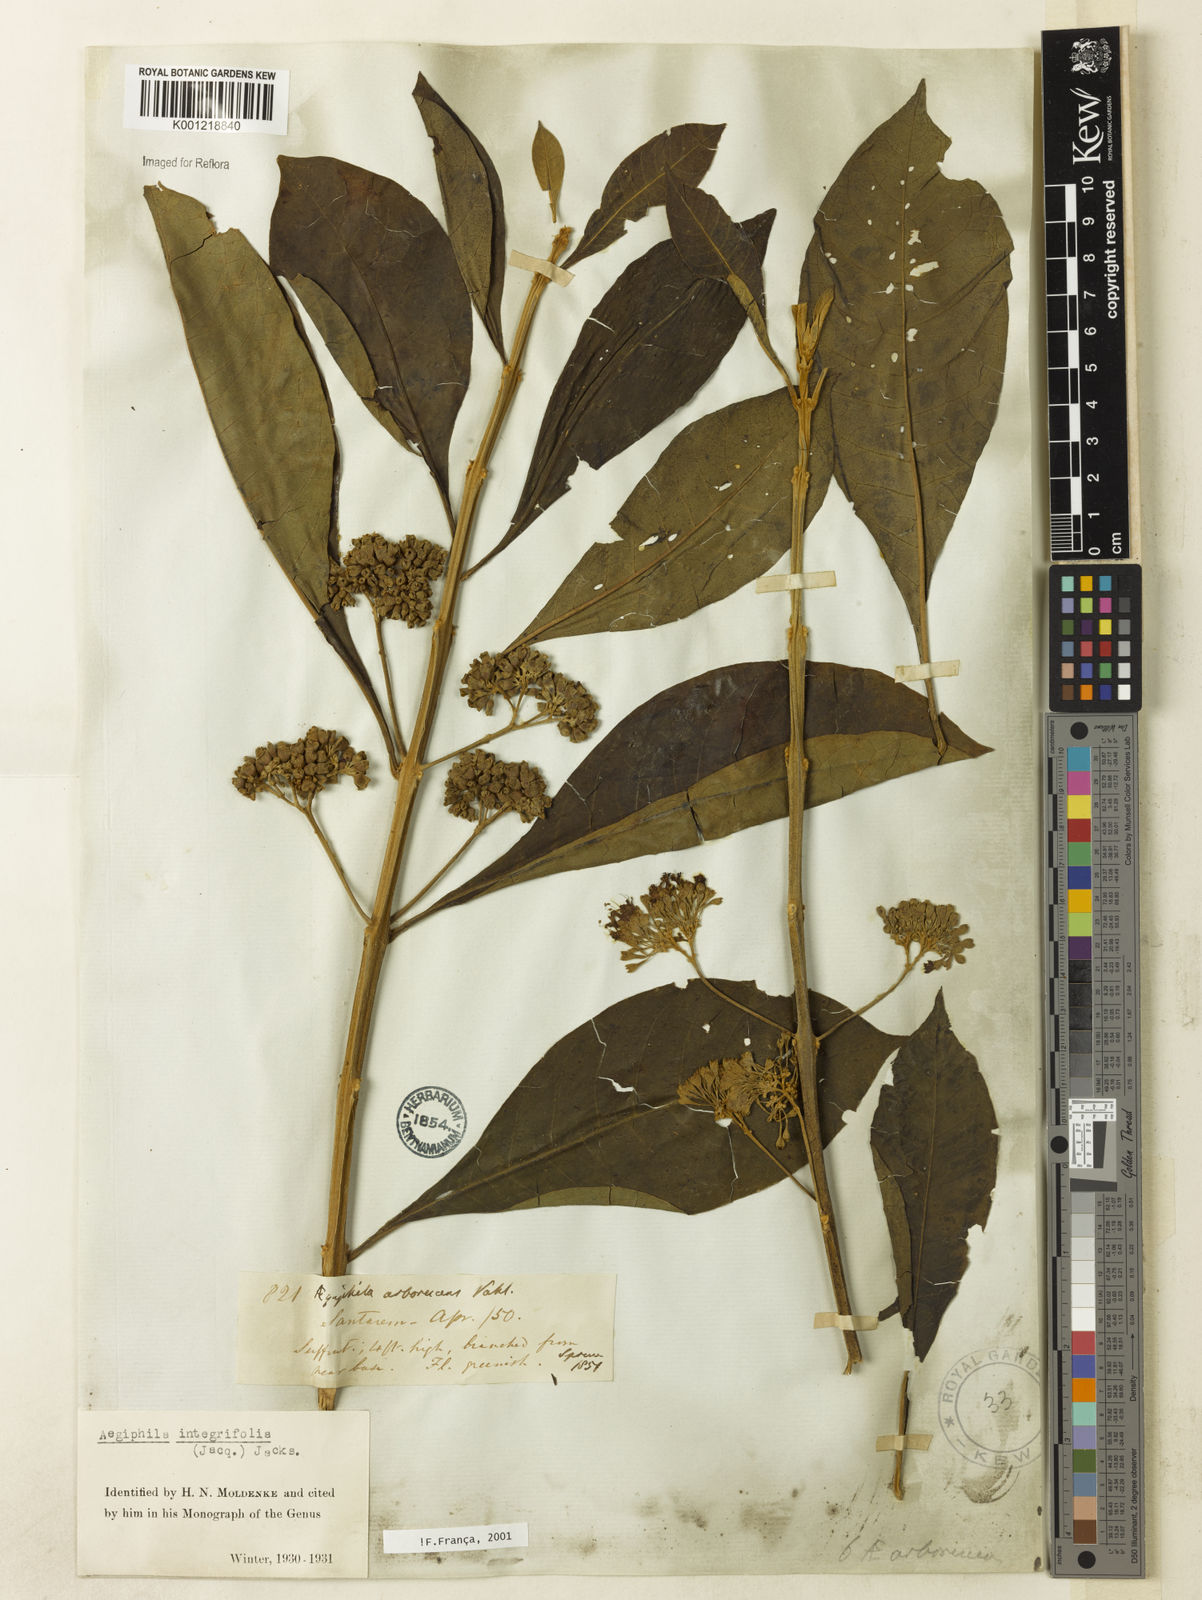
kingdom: Plantae
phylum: Tracheophyta
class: Magnoliopsida
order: Lamiales
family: Lamiaceae
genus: Aegiphila
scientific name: Aegiphila
